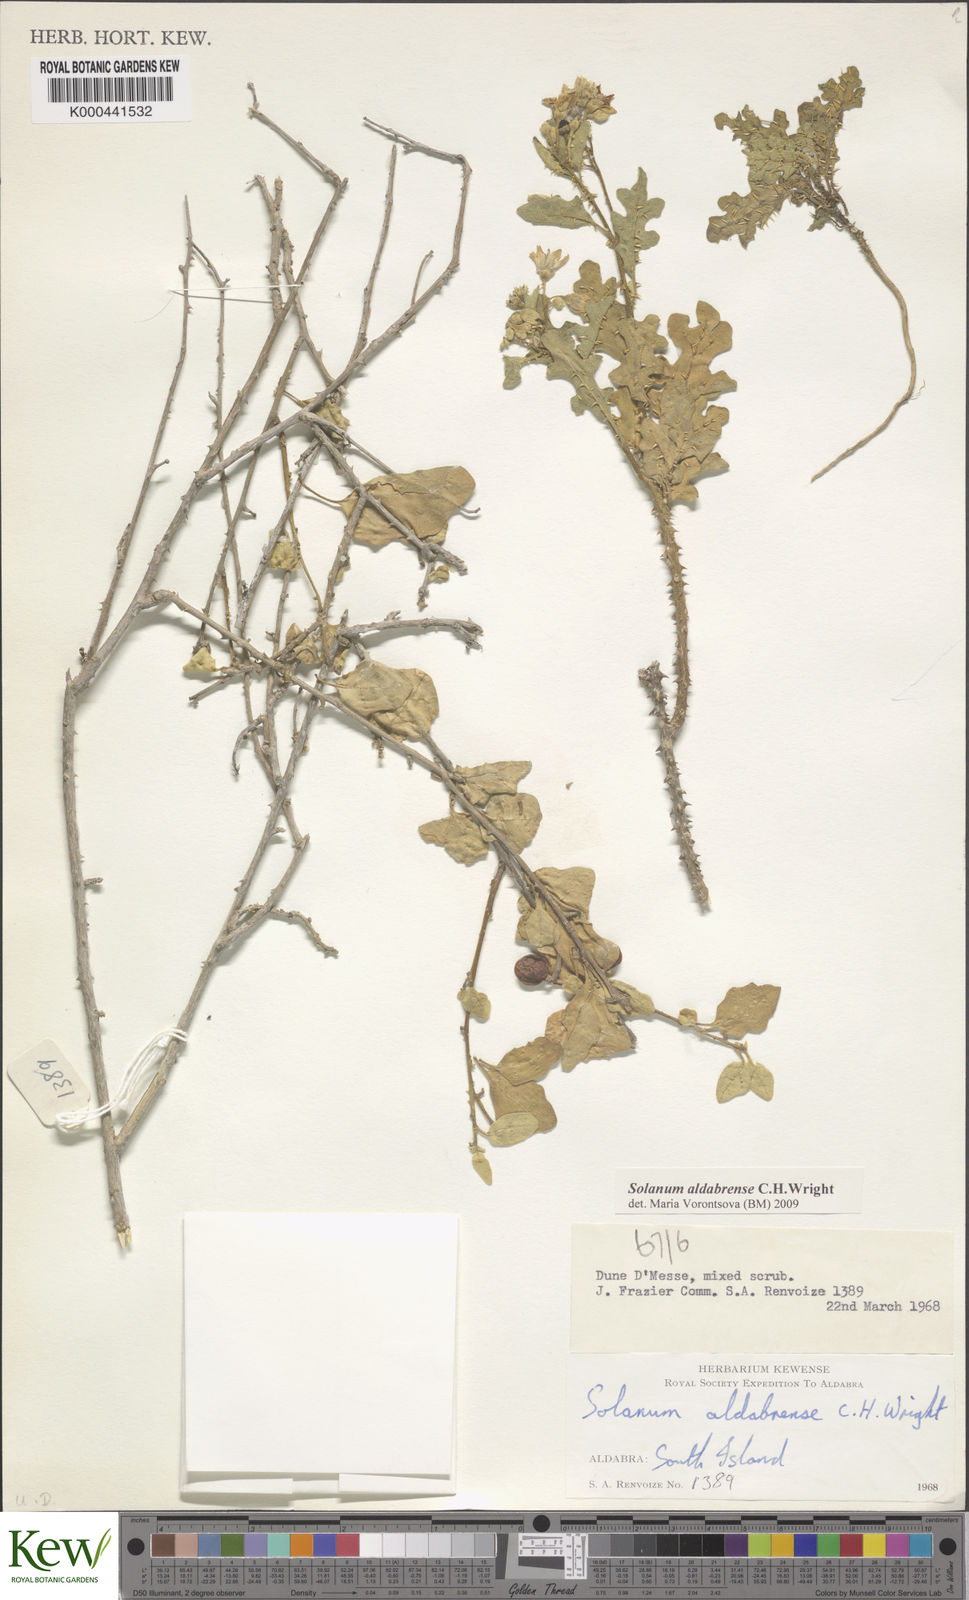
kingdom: Plantae
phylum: Tracheophyta
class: Magnoliopsida
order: Solanales
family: Solanaceae
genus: Solanum
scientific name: Solanum aldabrense
